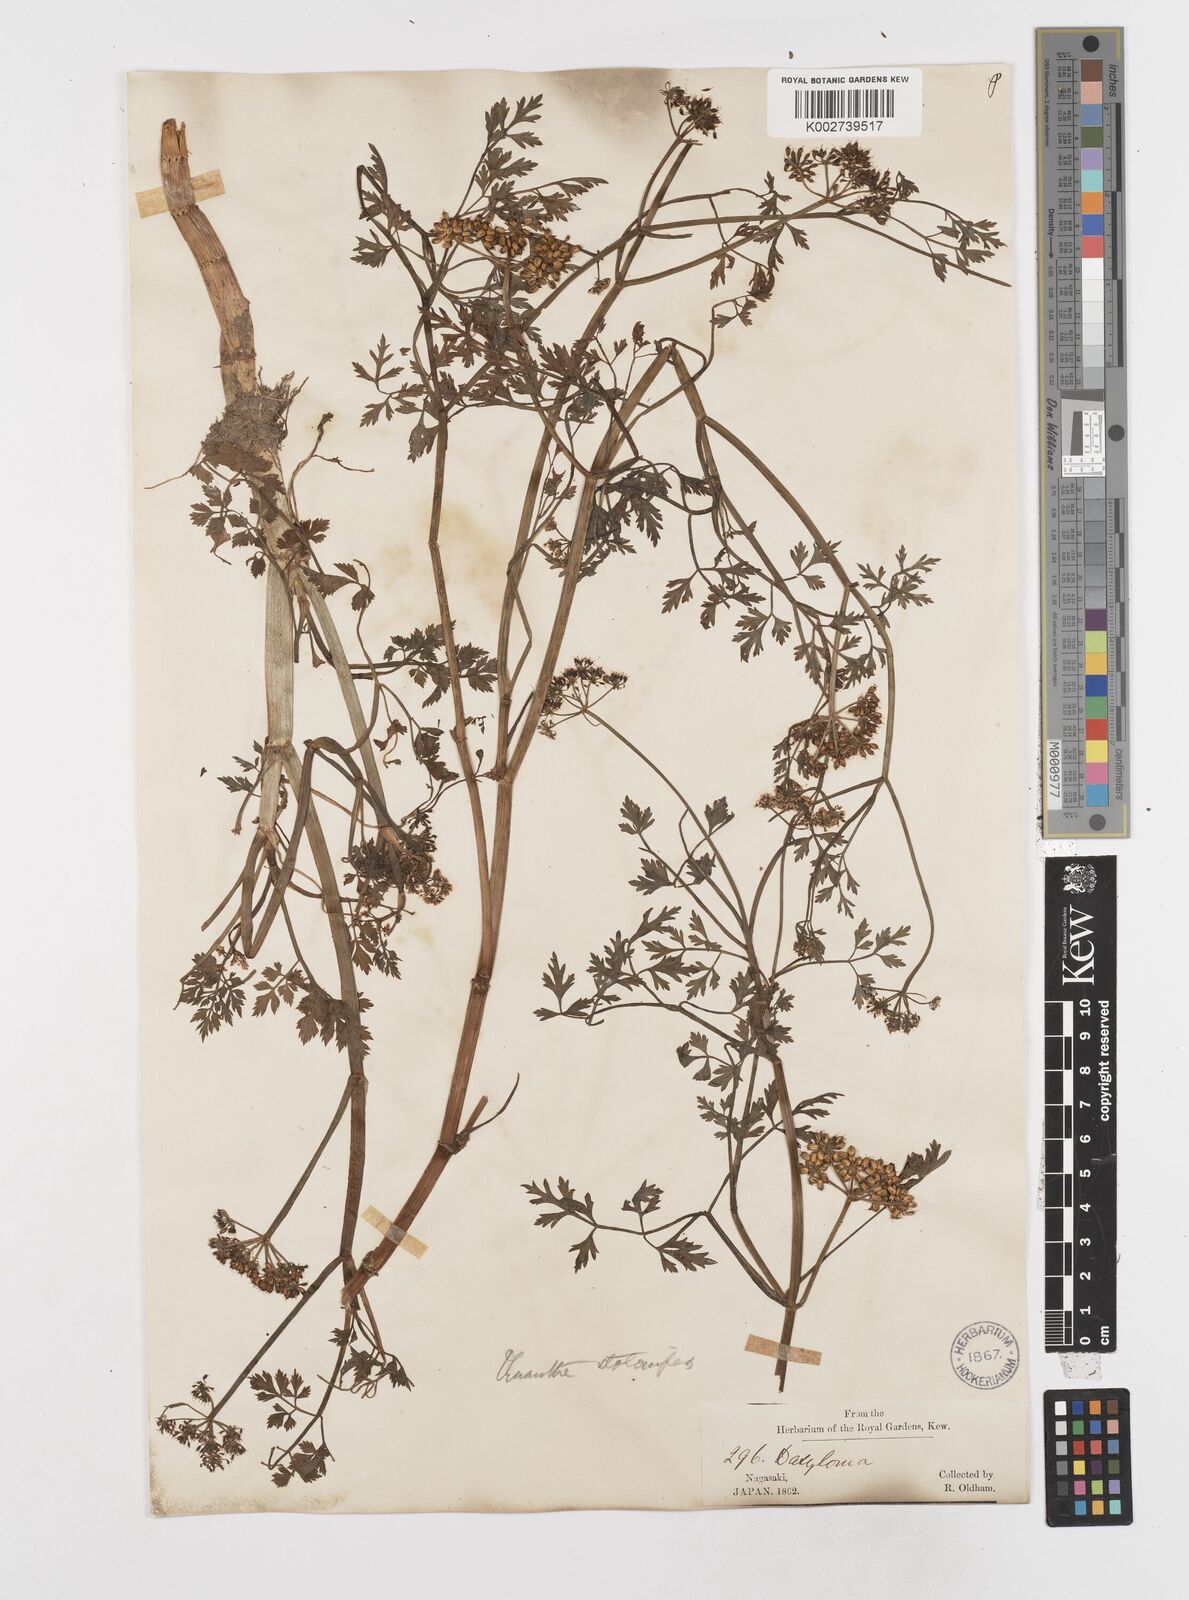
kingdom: Plantae
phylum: Tracheophyta
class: Magnoliopsida
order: Apiales
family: Apiaceae
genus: Oenanthe
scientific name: Oenanthe javanica
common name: Java water-dropwort
